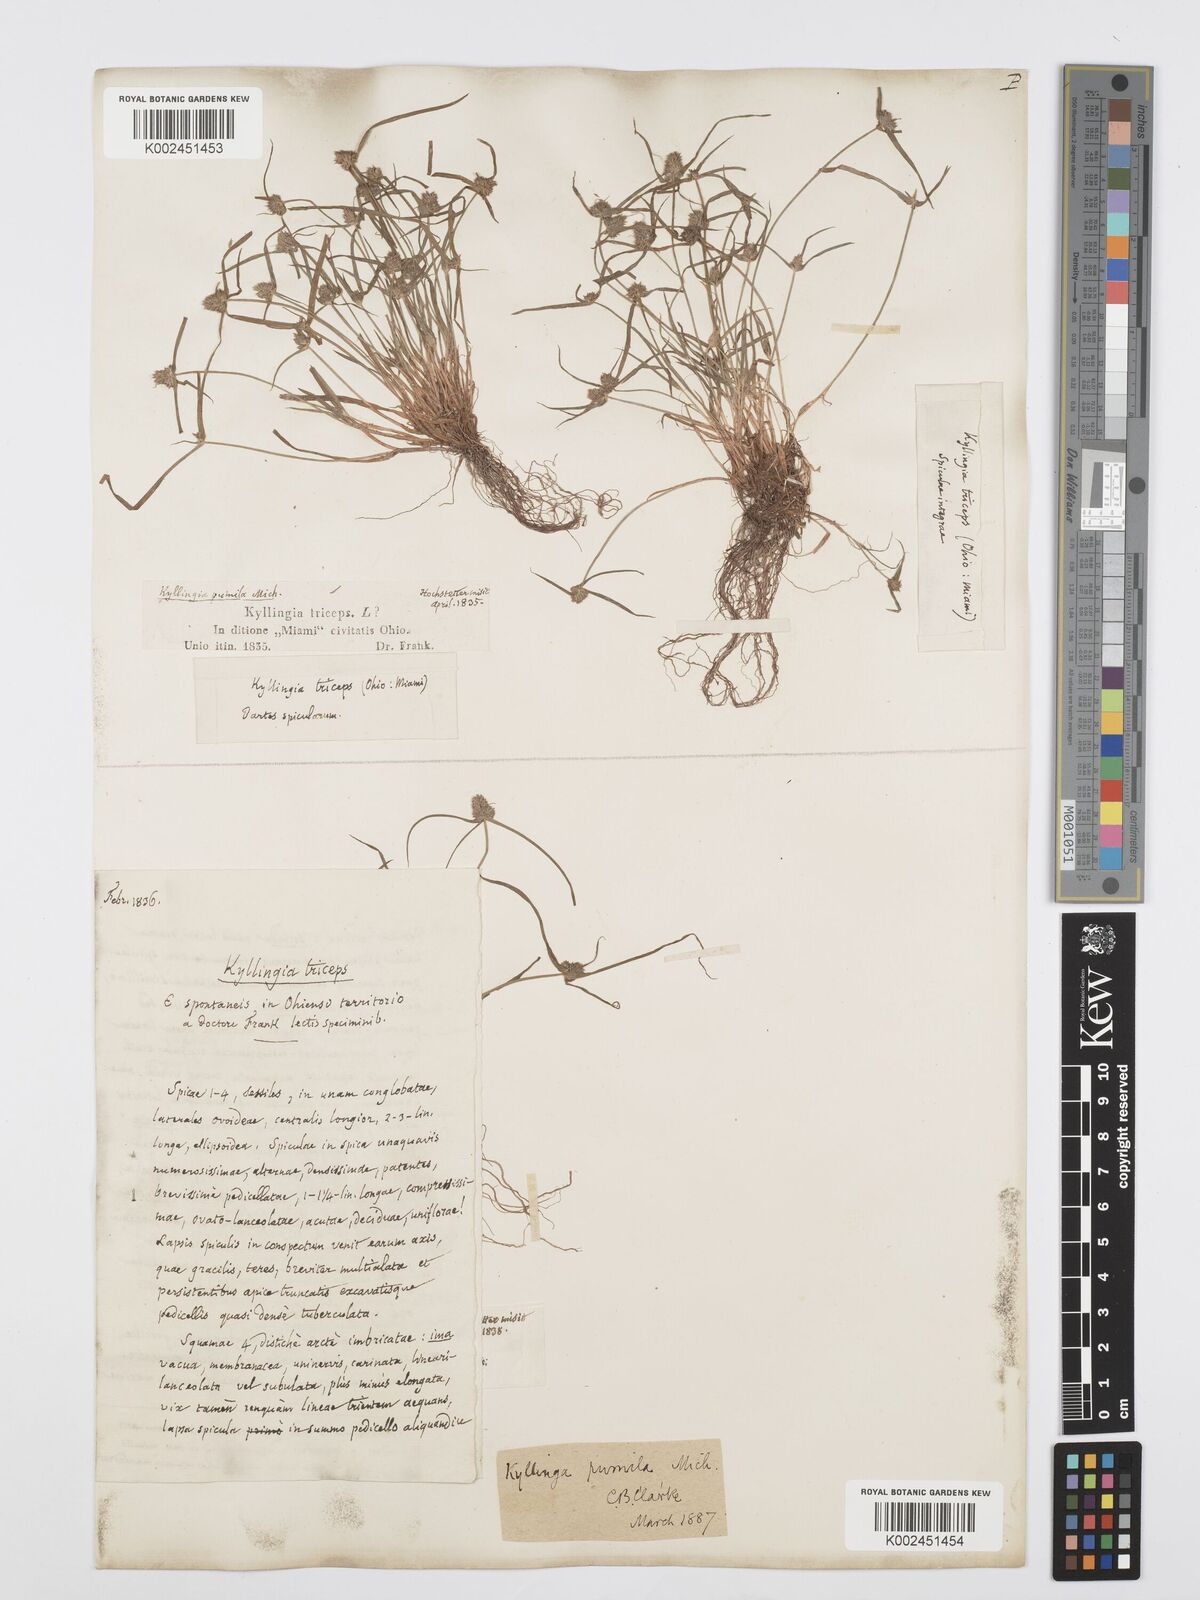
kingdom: Plantae
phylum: Tracheophyta
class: Liliopsida
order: Poales
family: Cyperaceae
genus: Cyperus
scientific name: Cyperus
